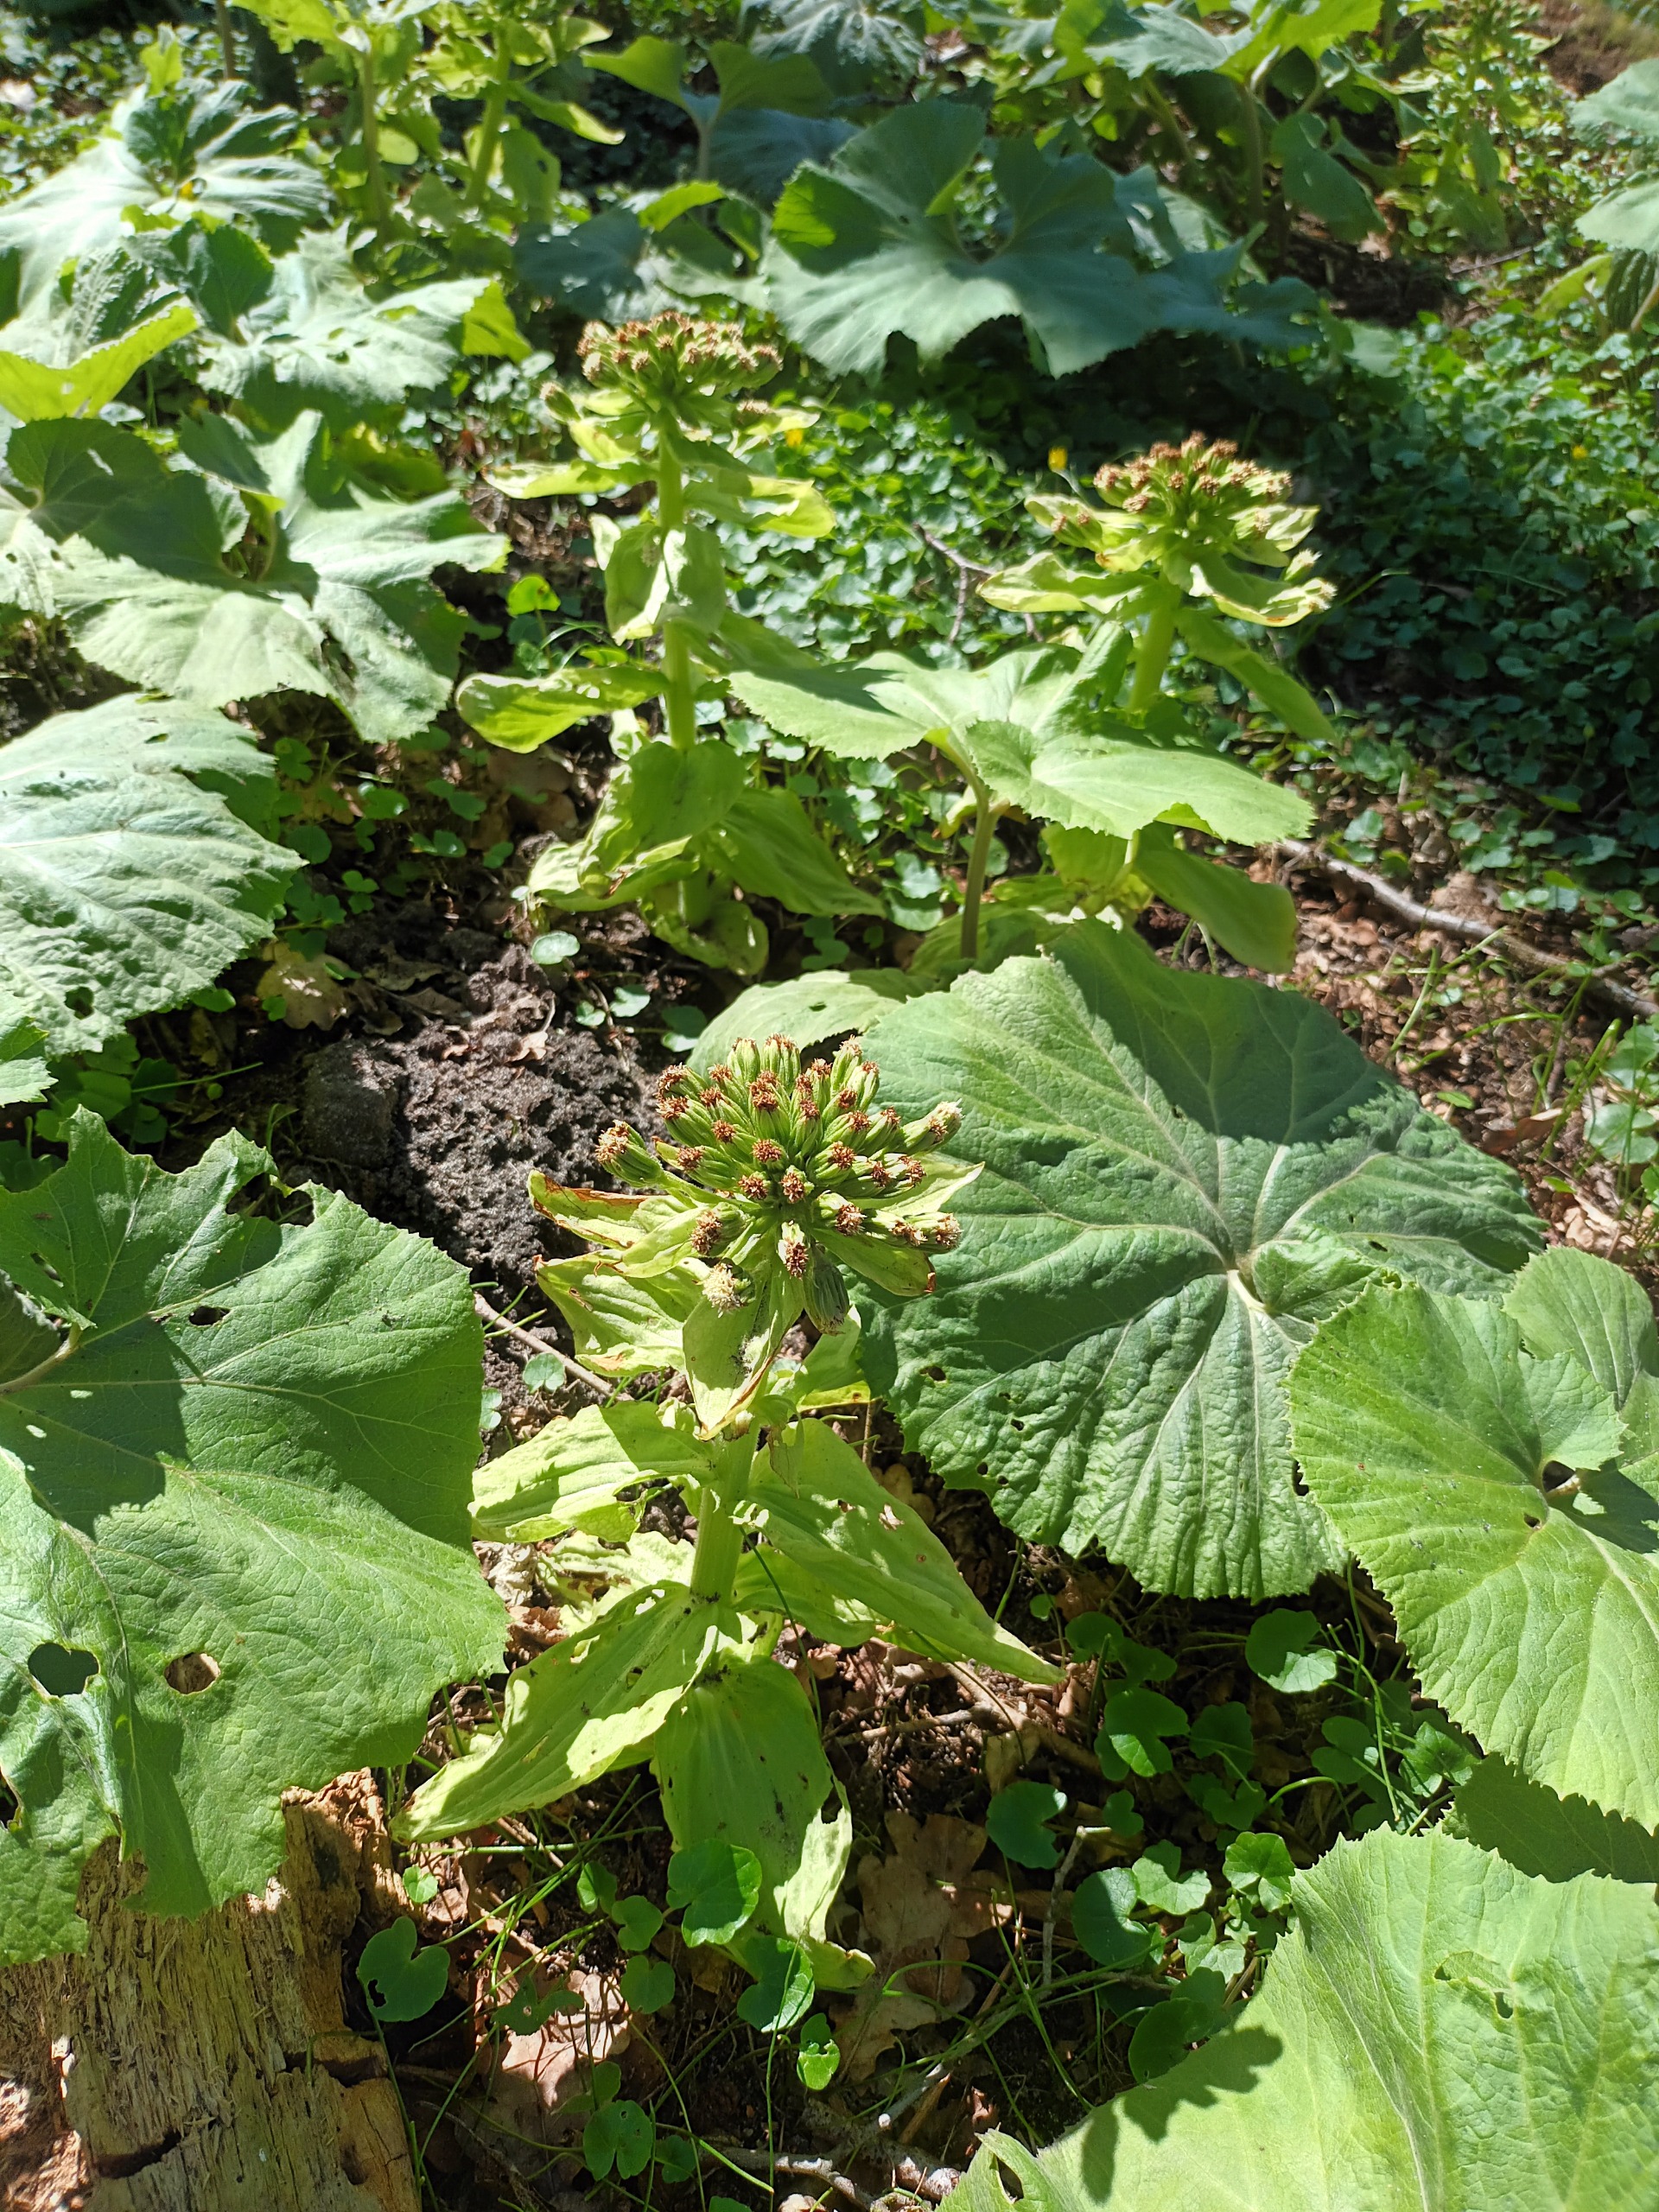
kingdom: Plantae
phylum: Tracheophyta
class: Magnoliopsida
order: Asterales
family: Asteraceae
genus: Petasites
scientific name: Petasites japonicus
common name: Japansk hestehov
